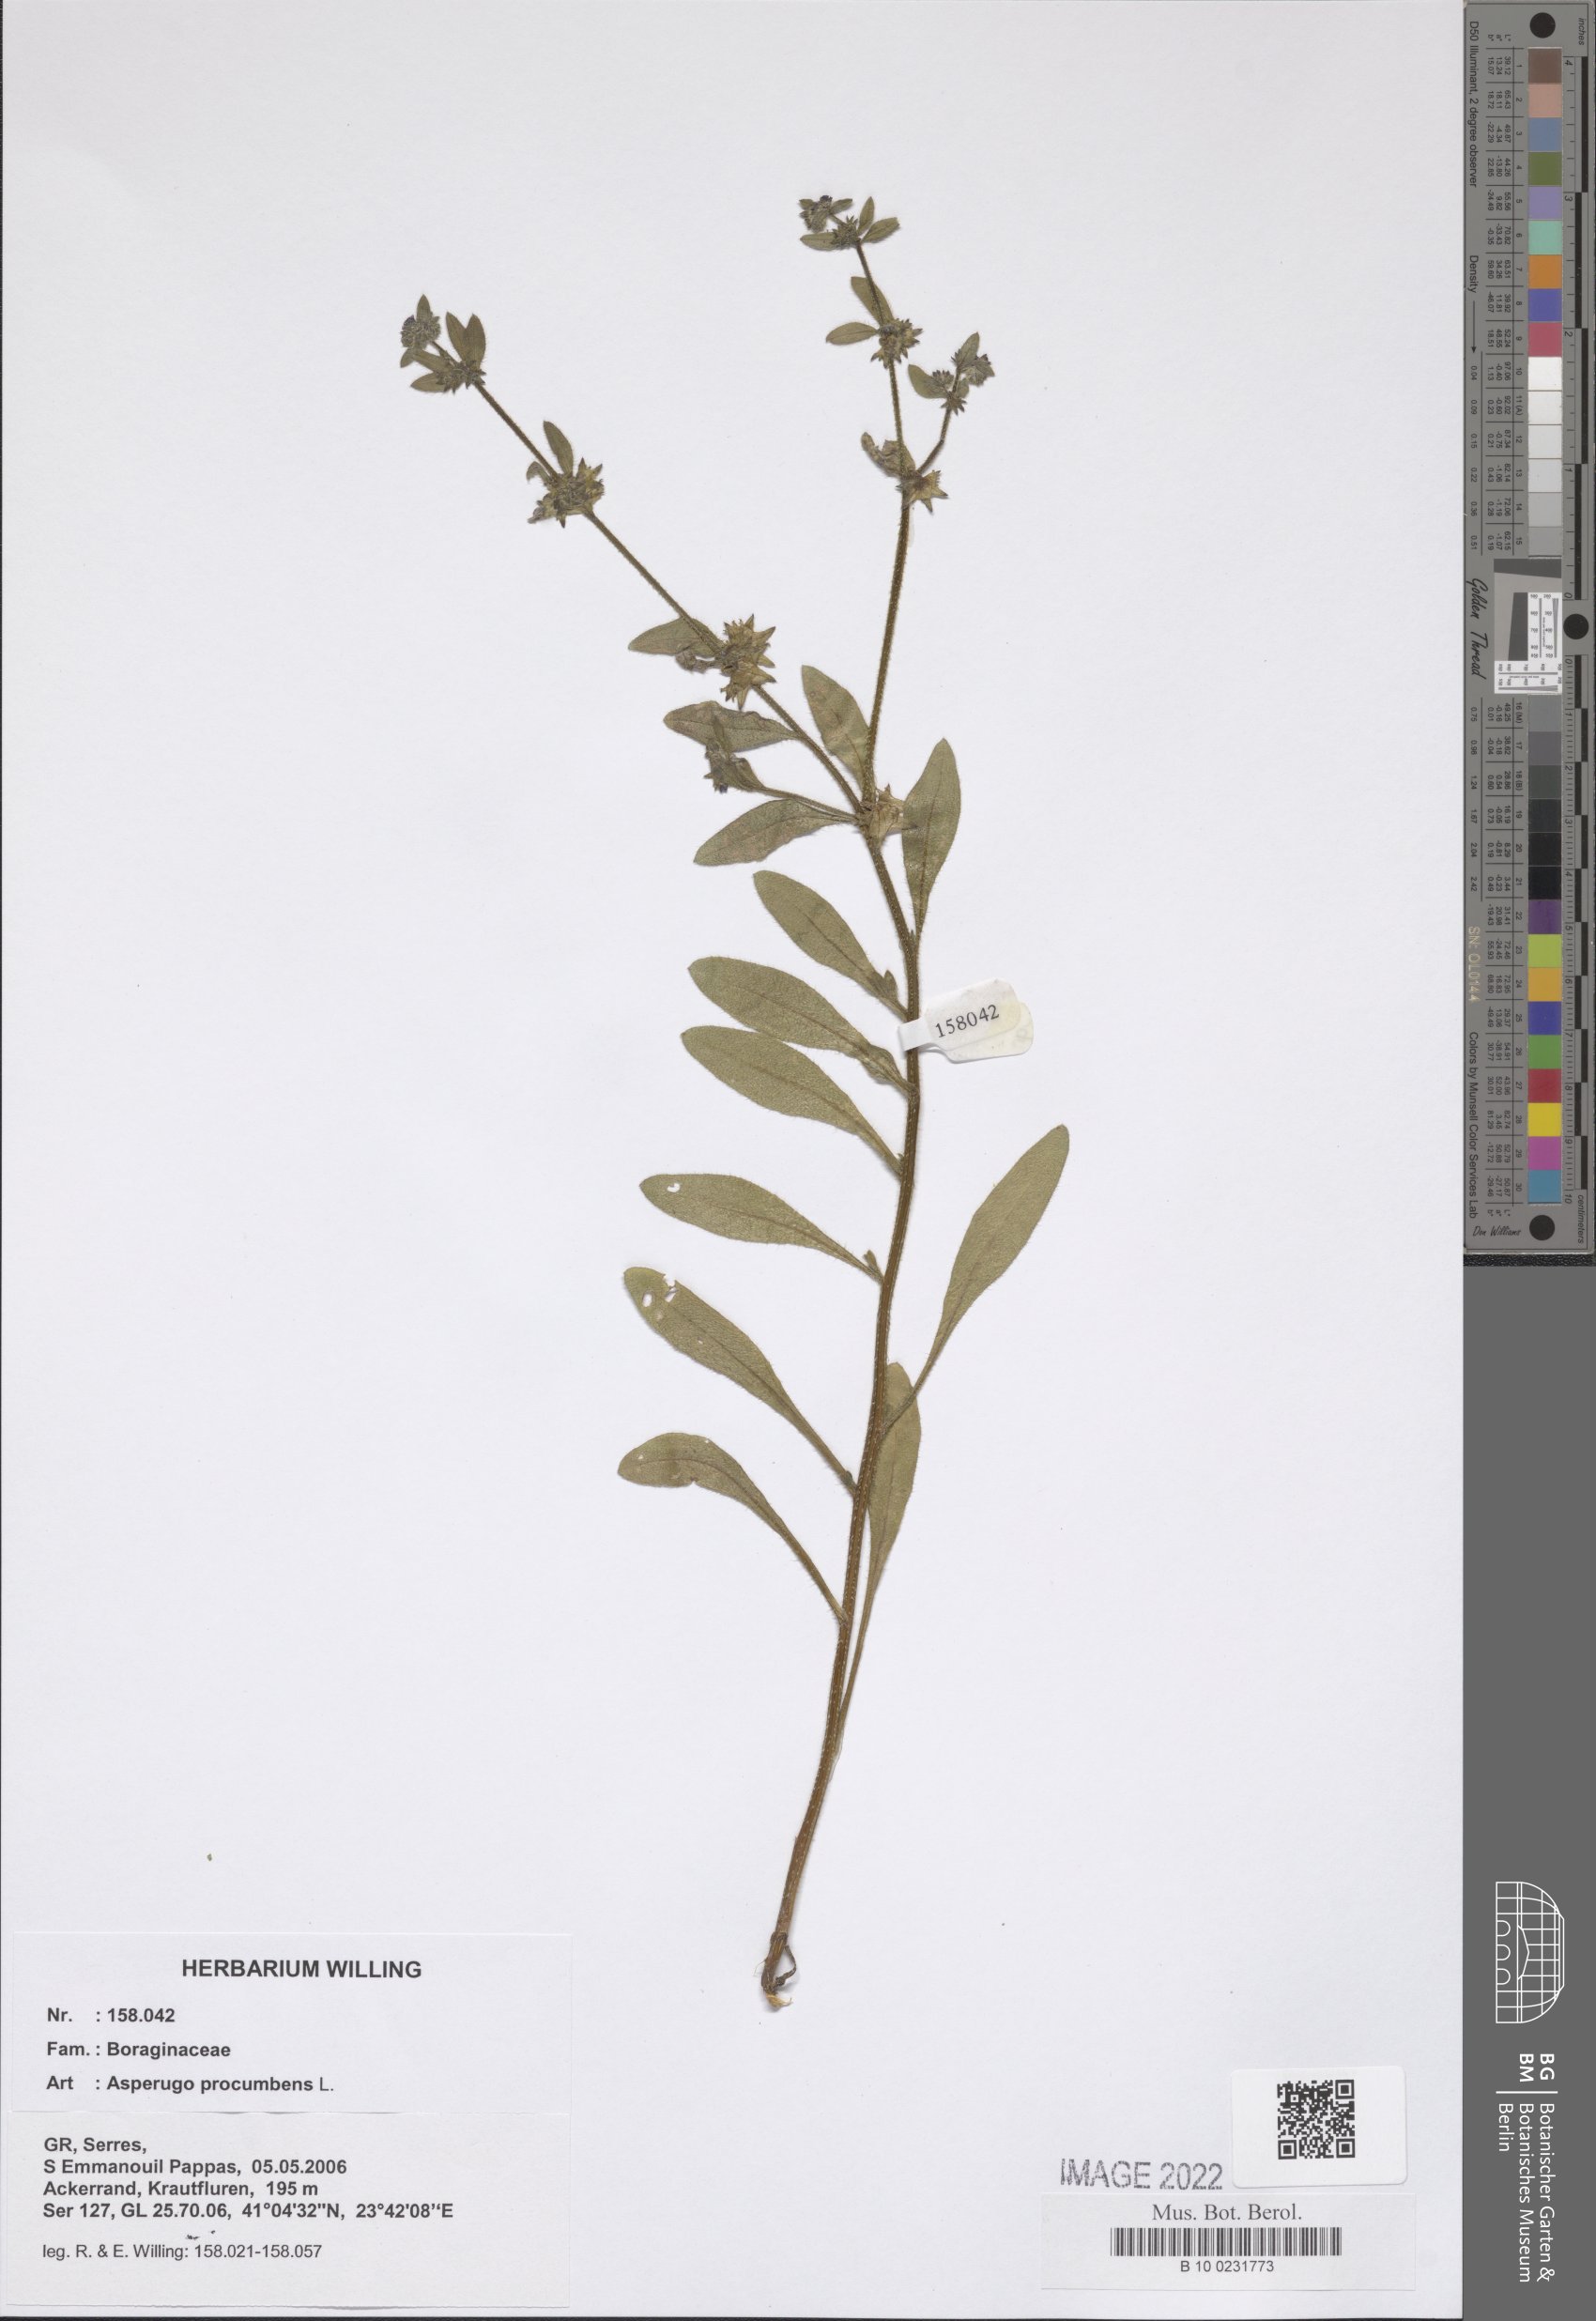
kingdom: Plantae
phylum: Tracheophyta
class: Magnoliopsida
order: Boraginales
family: Boraginaceae
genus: Asperugo
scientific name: Asperugo procumbens
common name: Madwort
